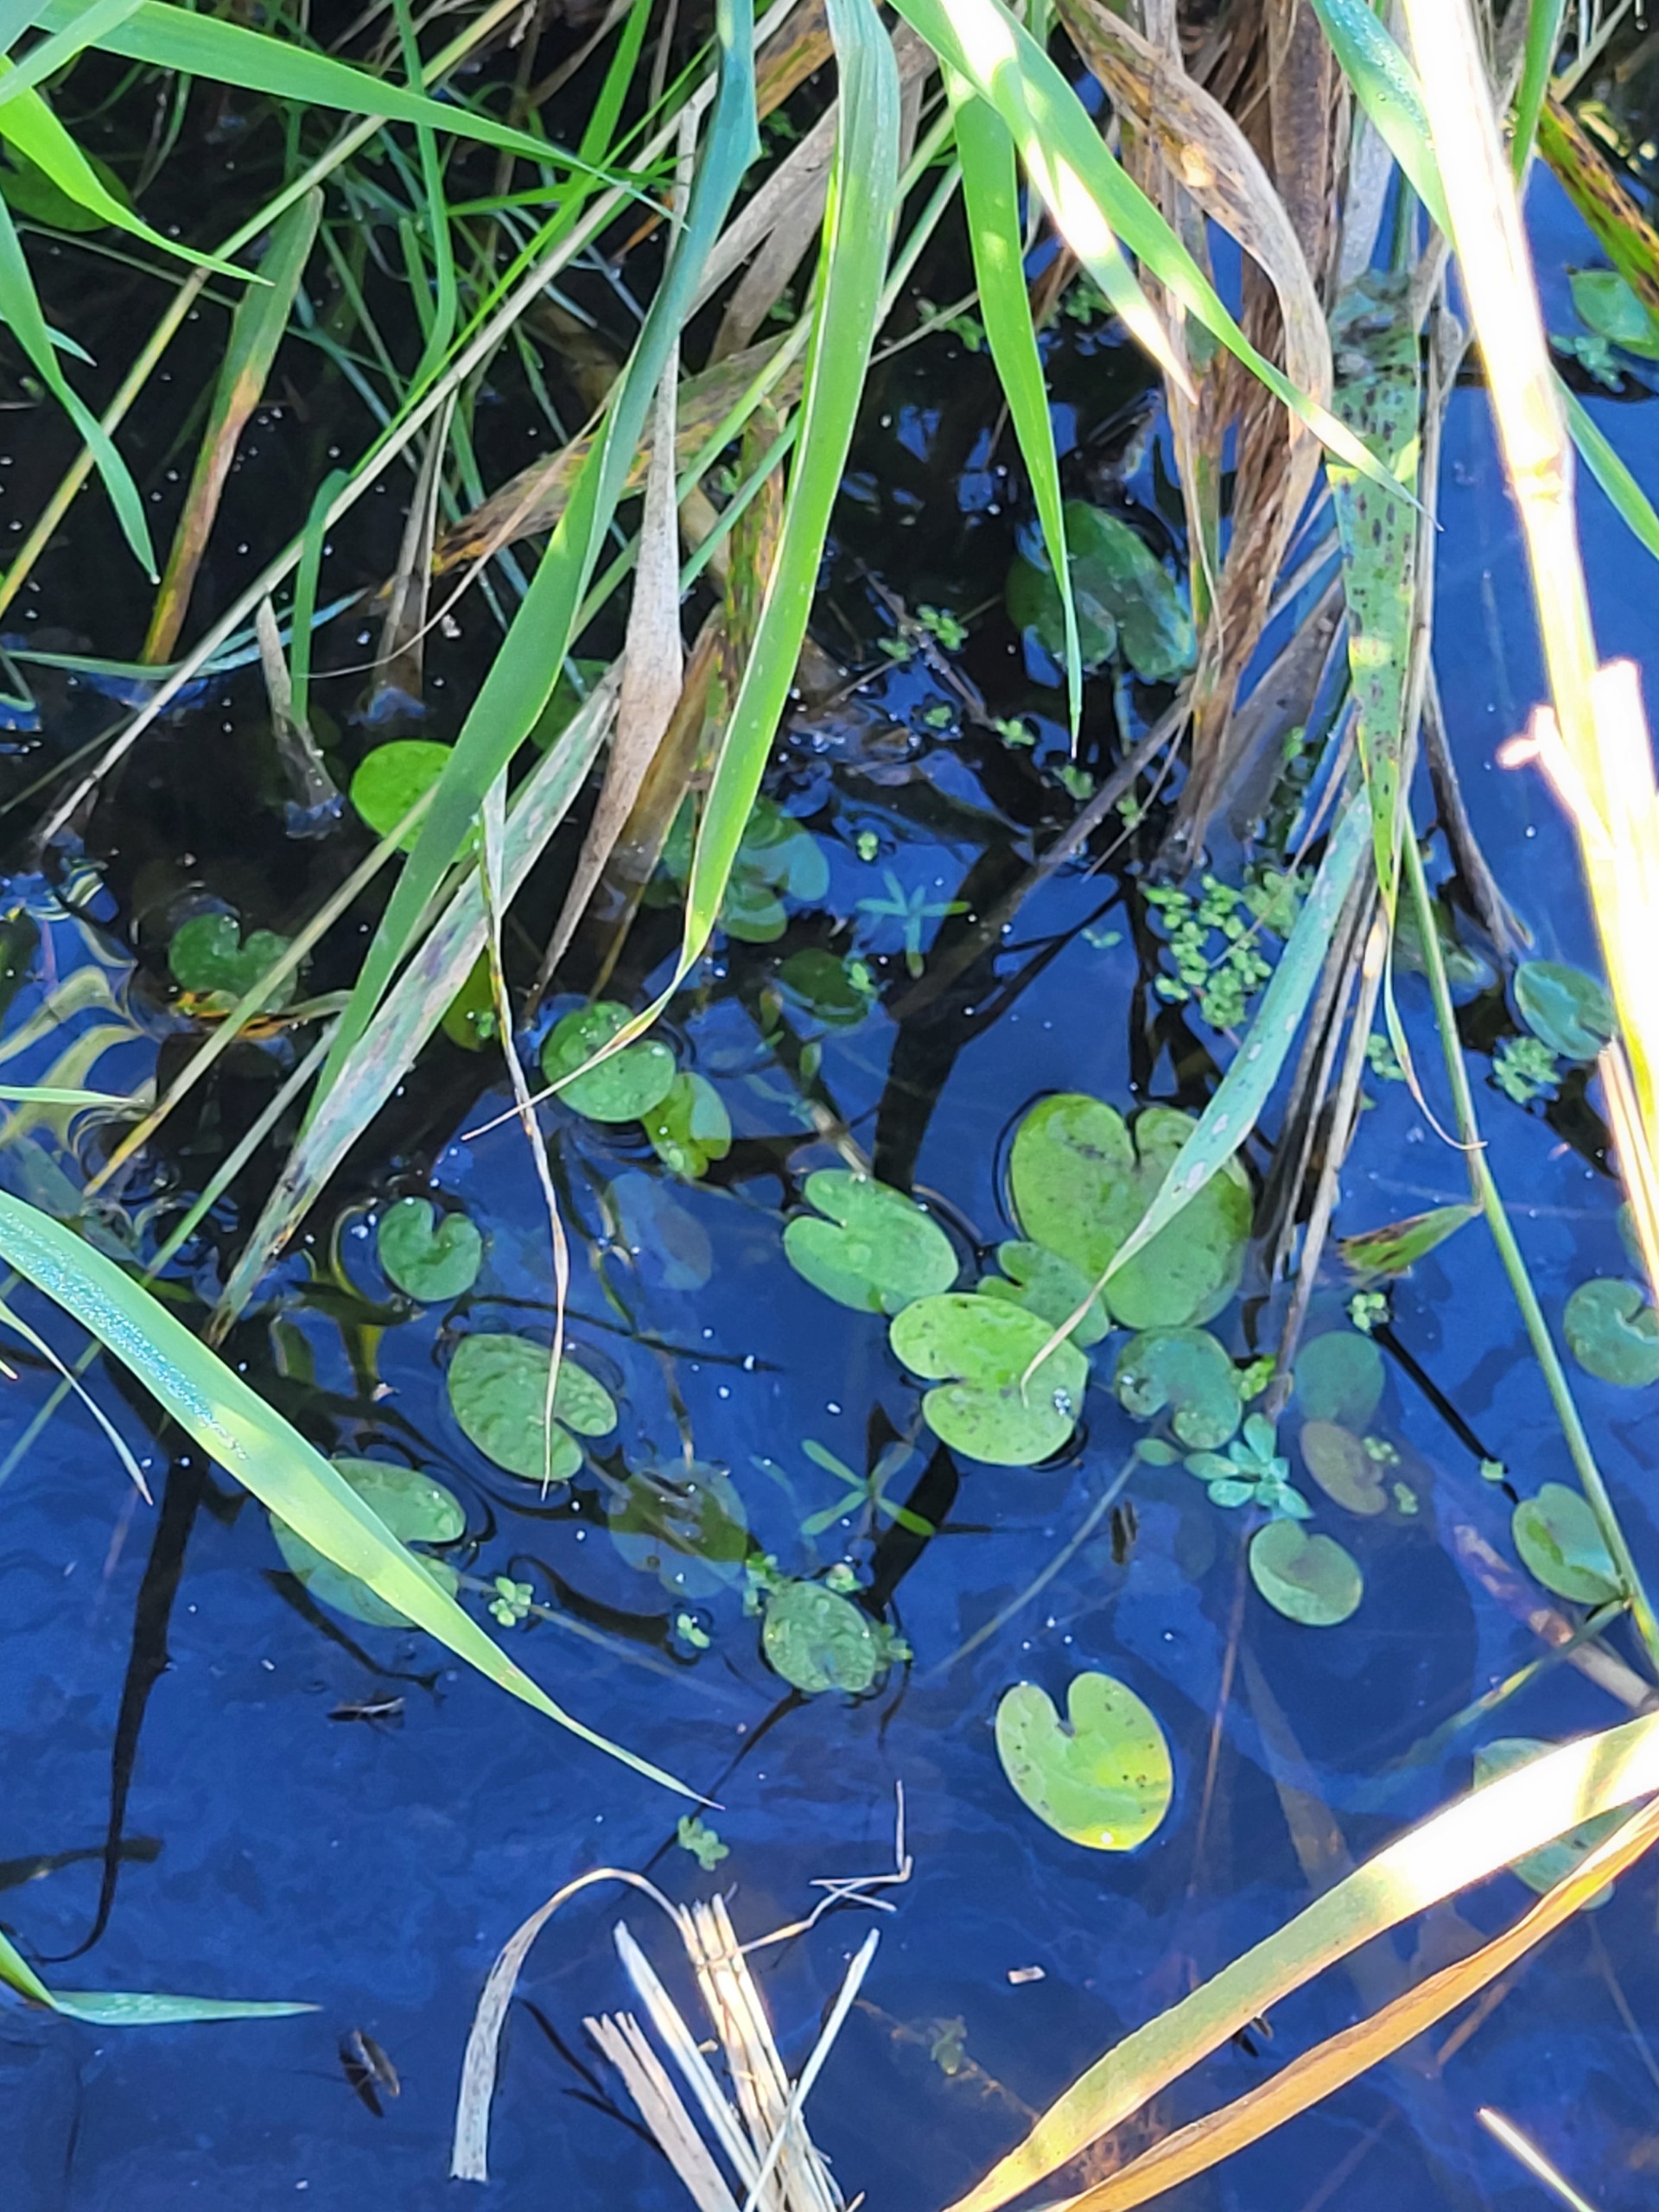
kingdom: Plantae
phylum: Tracheophyta
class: Liliopsida
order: Alismatales
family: Hydrocharitaceae
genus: Hydrocharis
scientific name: Hydrocharis morsus-ranae
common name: Frøbid
